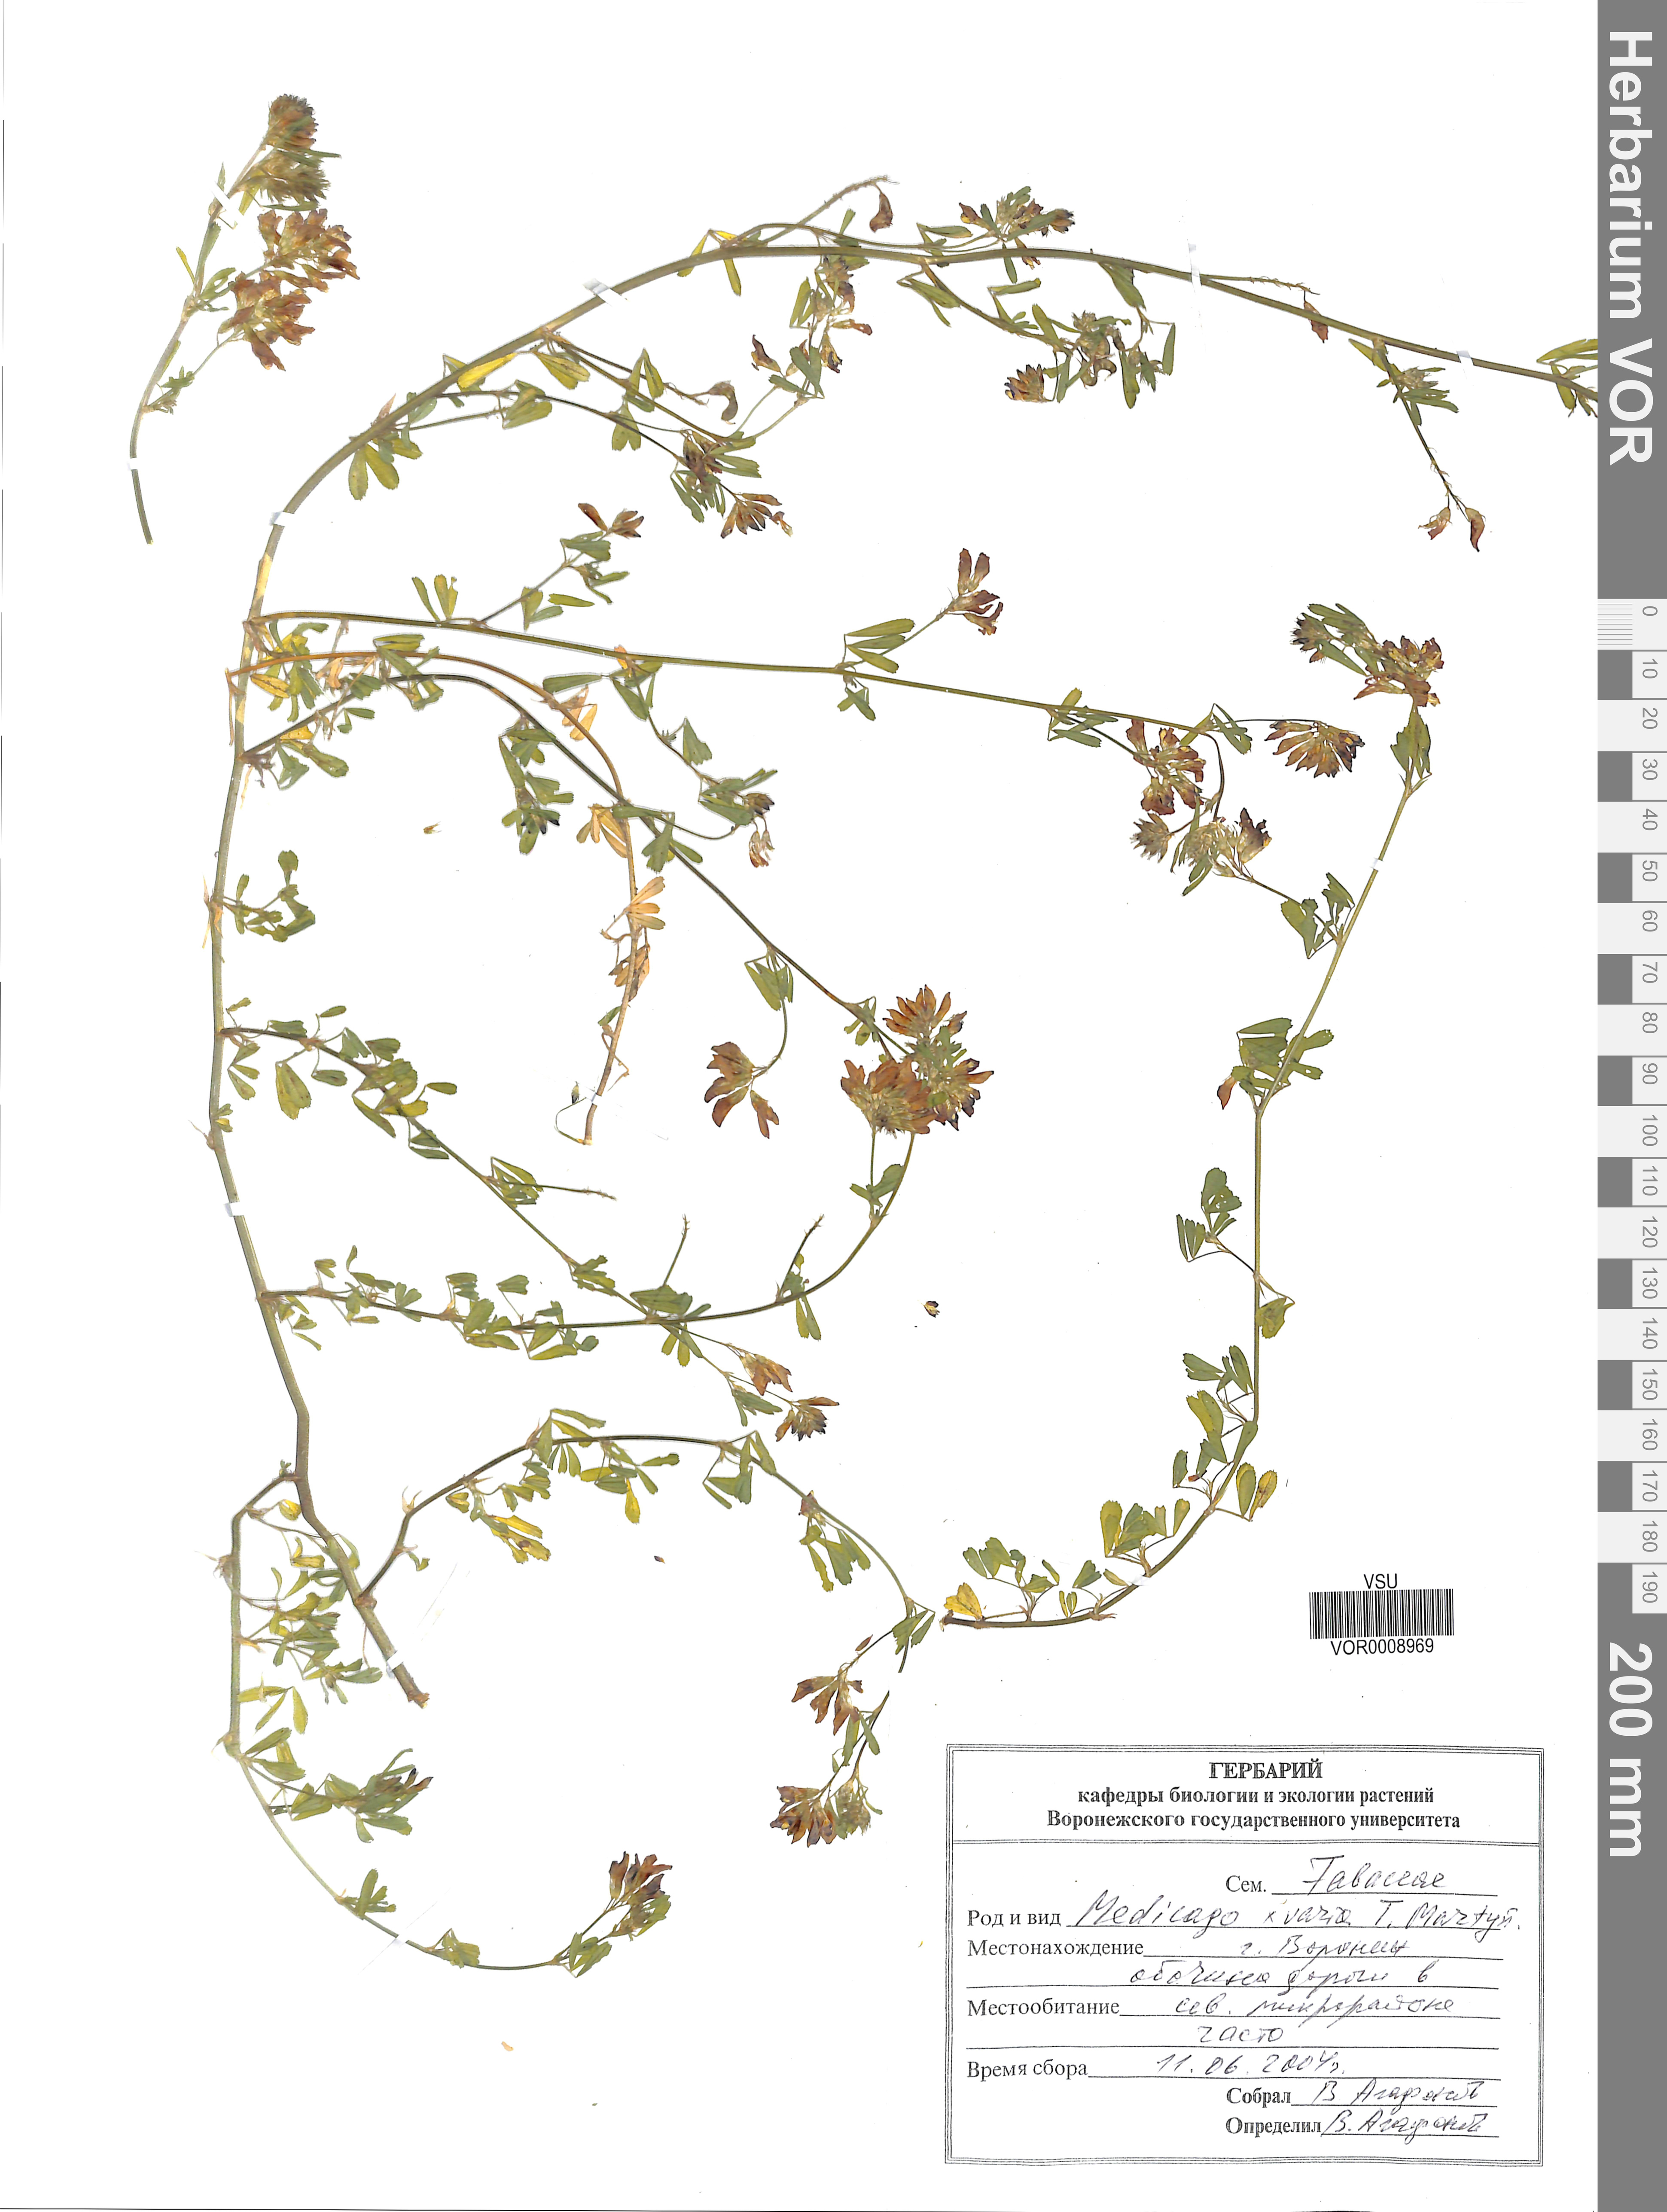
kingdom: Plantae
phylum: Tracheophyta
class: Magnoliopsida
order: Fabales
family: Fabaceae
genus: Medicago
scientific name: Medicago varia
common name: Sand lucerne
